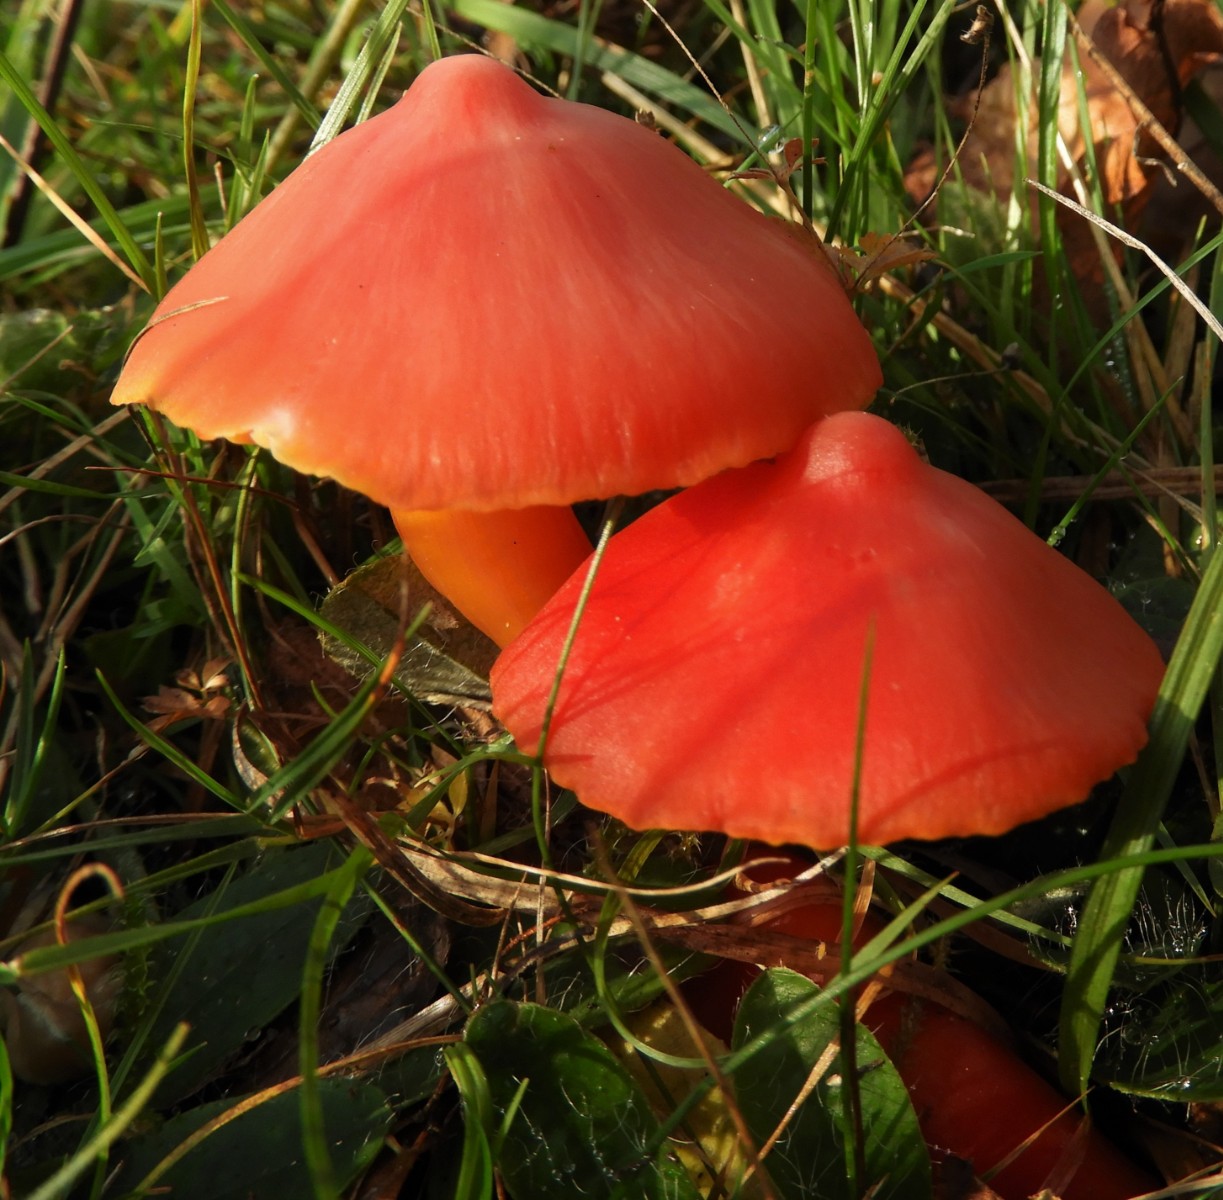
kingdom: Fungi
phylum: Basidiomycota
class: Agaricomycetes
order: Agaricales
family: Hygrophoraceae
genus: Hygrocybe
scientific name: Hygrocybe splendidissima
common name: knaldrød vokshat
